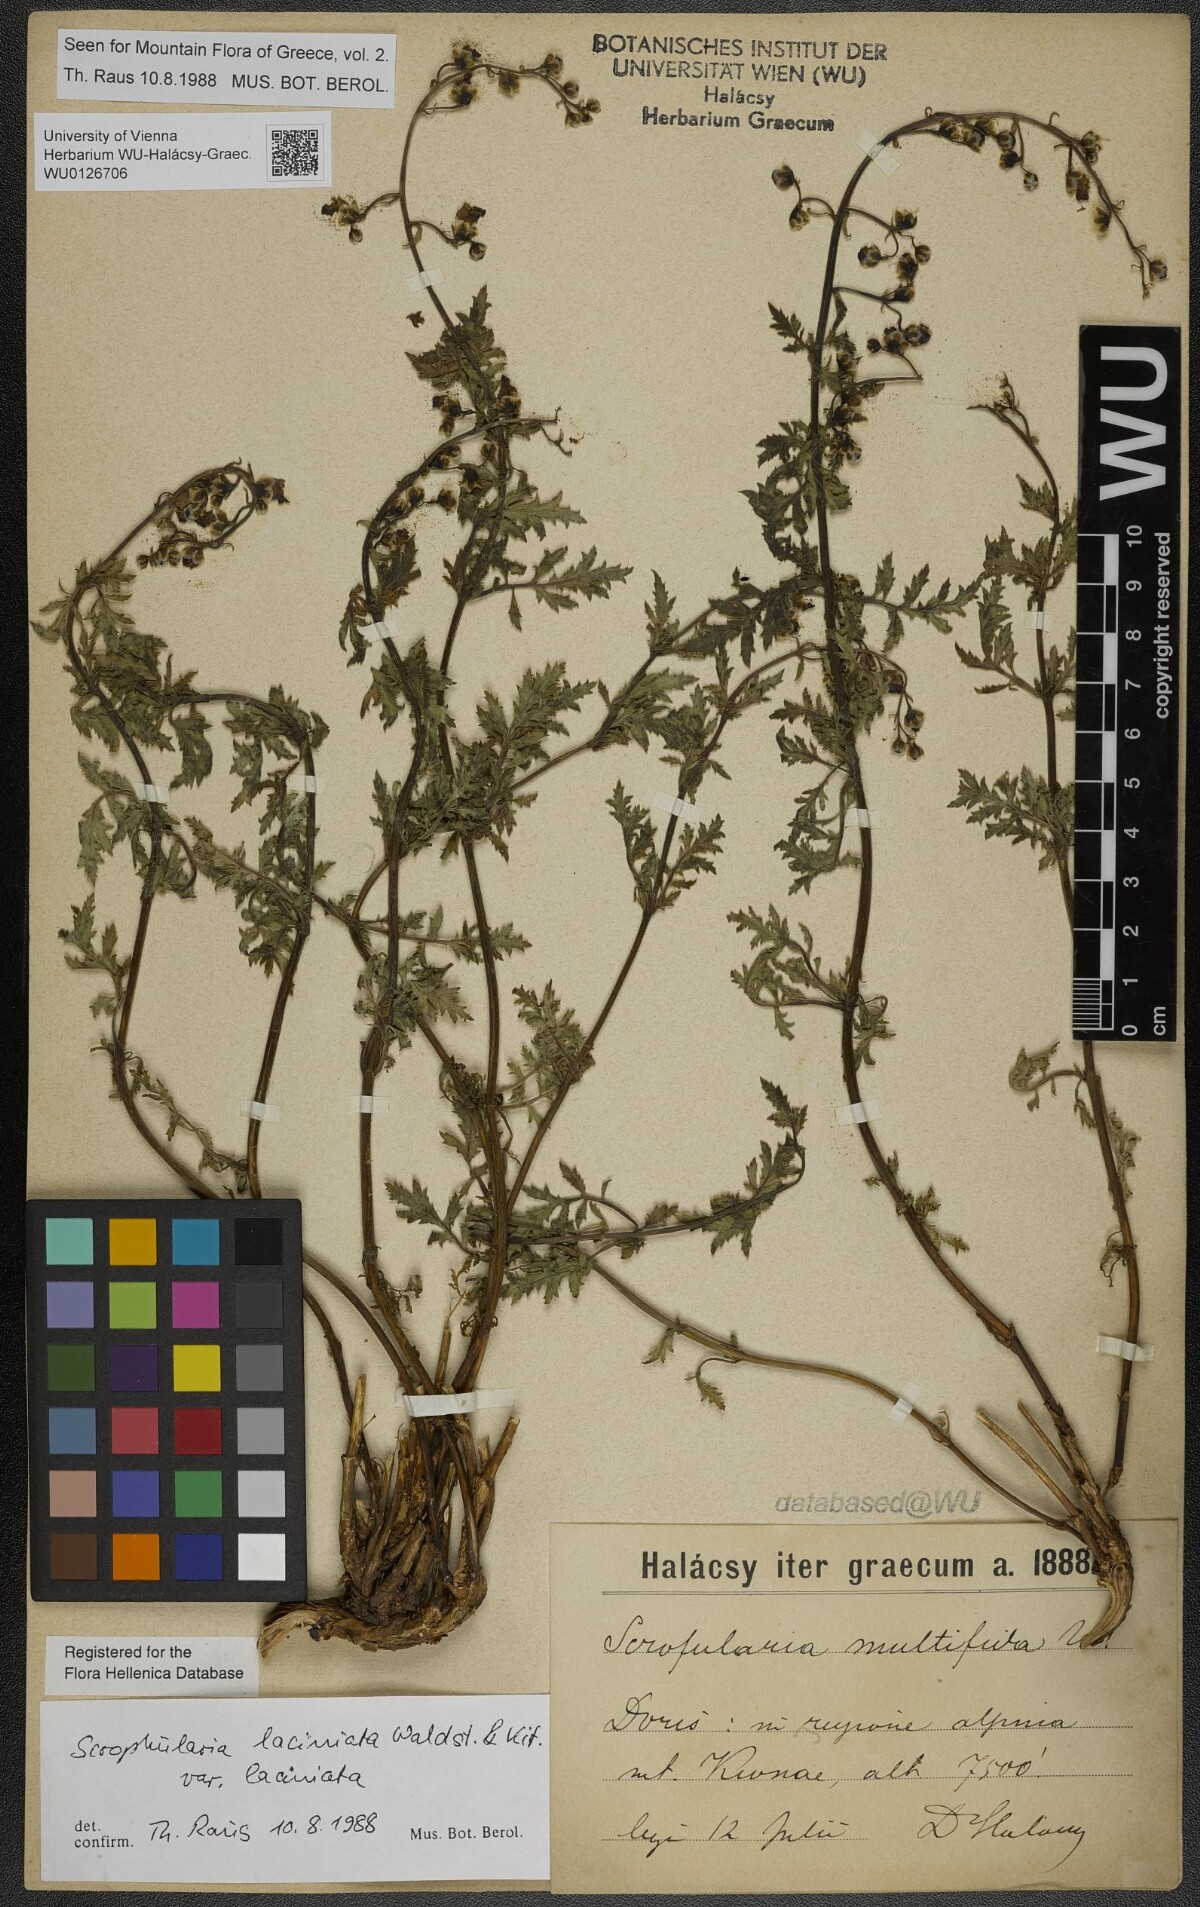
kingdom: Plantae
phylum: Tracheophyta
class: Magnoliopsida
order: Lamiales
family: Scrophulariaceae
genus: Scrophularia
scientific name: Scrophularia laciniata
